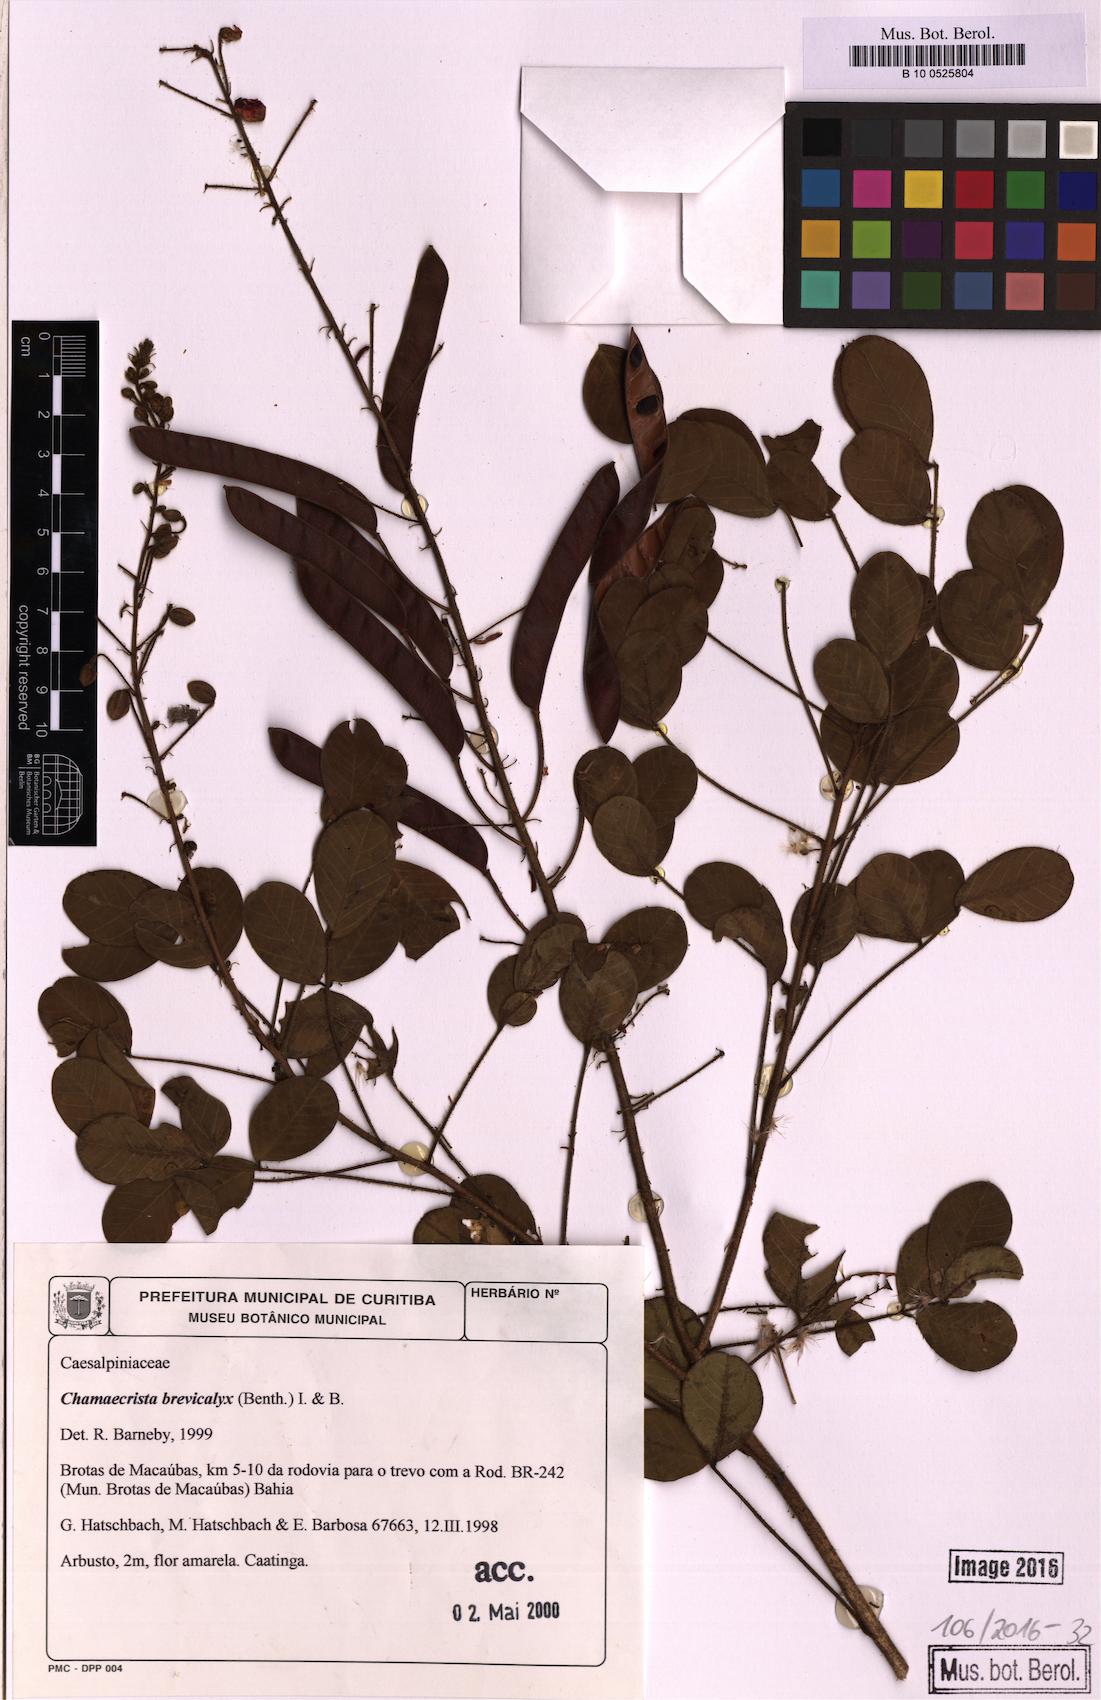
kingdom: Plantae
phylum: Tracheophyta
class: Magnoliopsida
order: Fabales
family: Fabaceae
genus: Chamaecrista
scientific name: Chamaecrista brevicalyx
